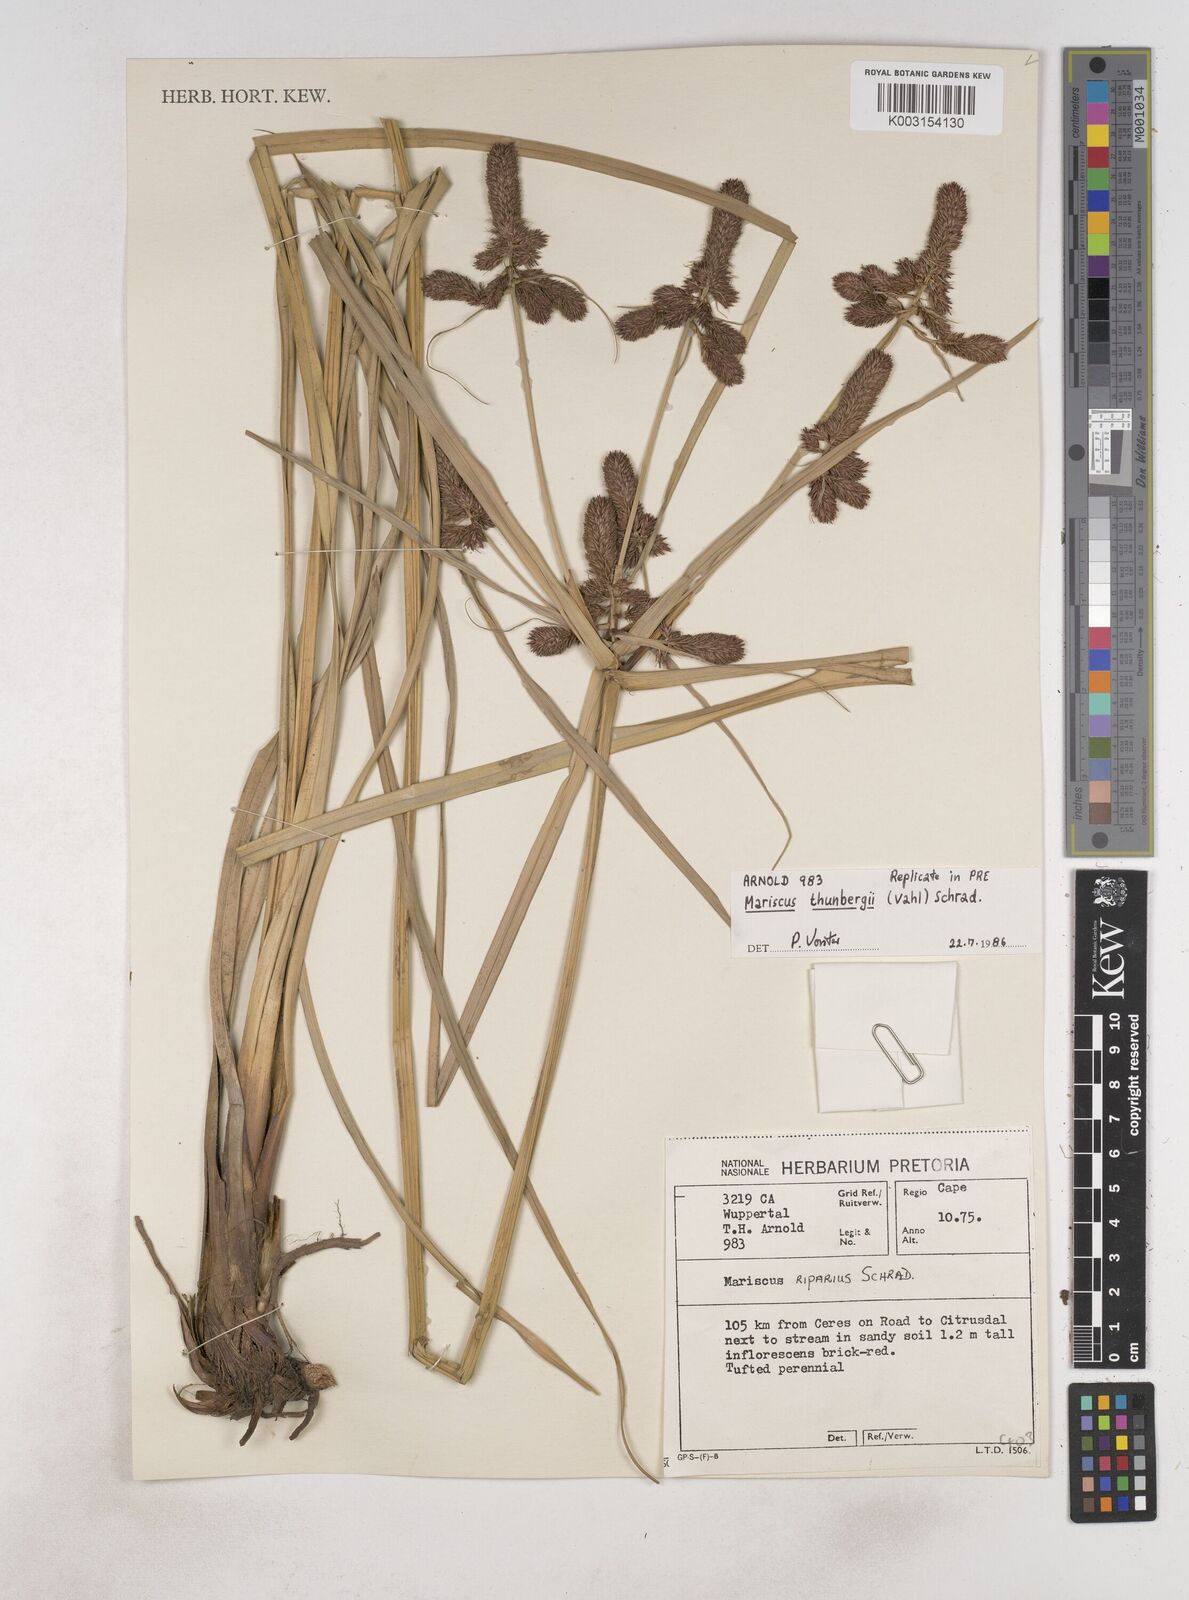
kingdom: Plantae
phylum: Tracheophyta
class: Liliopsida
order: Poales
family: Cyperaceae
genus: Cyperus
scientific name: Cyperus thunbergii
